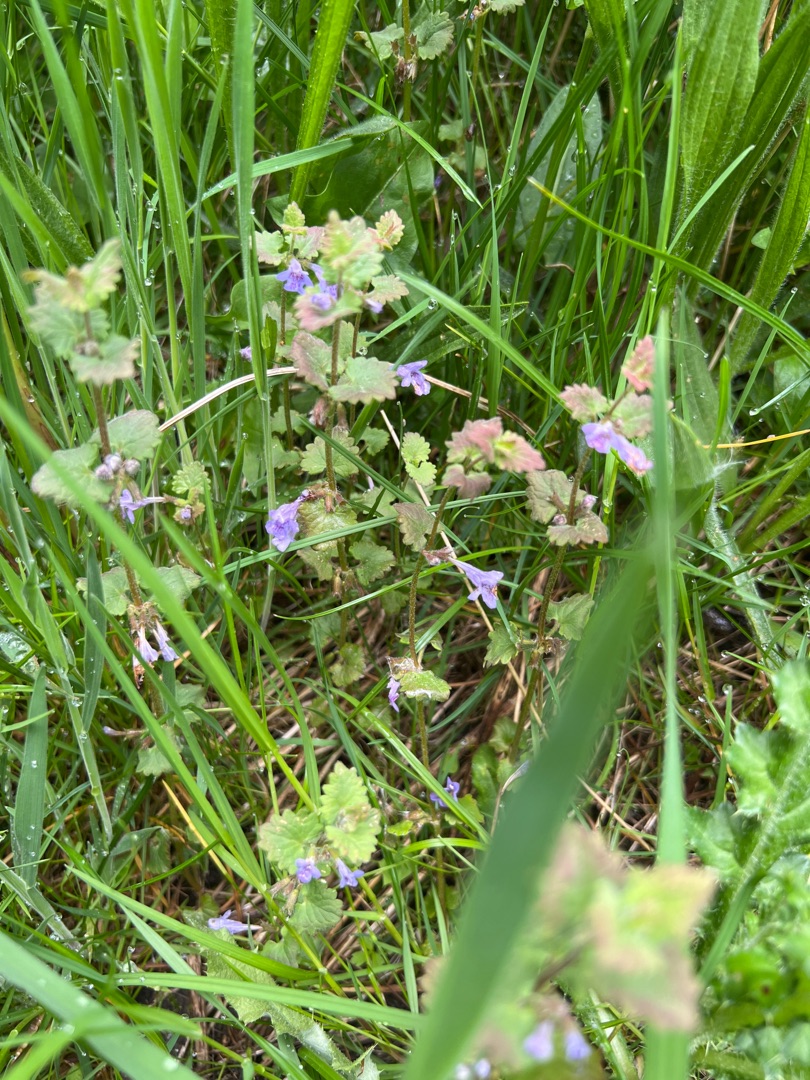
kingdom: Plantae
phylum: Tracheophyta
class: Magnoliopsida
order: Lamiales
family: Lamiaceae
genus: Glechoma
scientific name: Glechoma hederacea
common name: Korsknap
